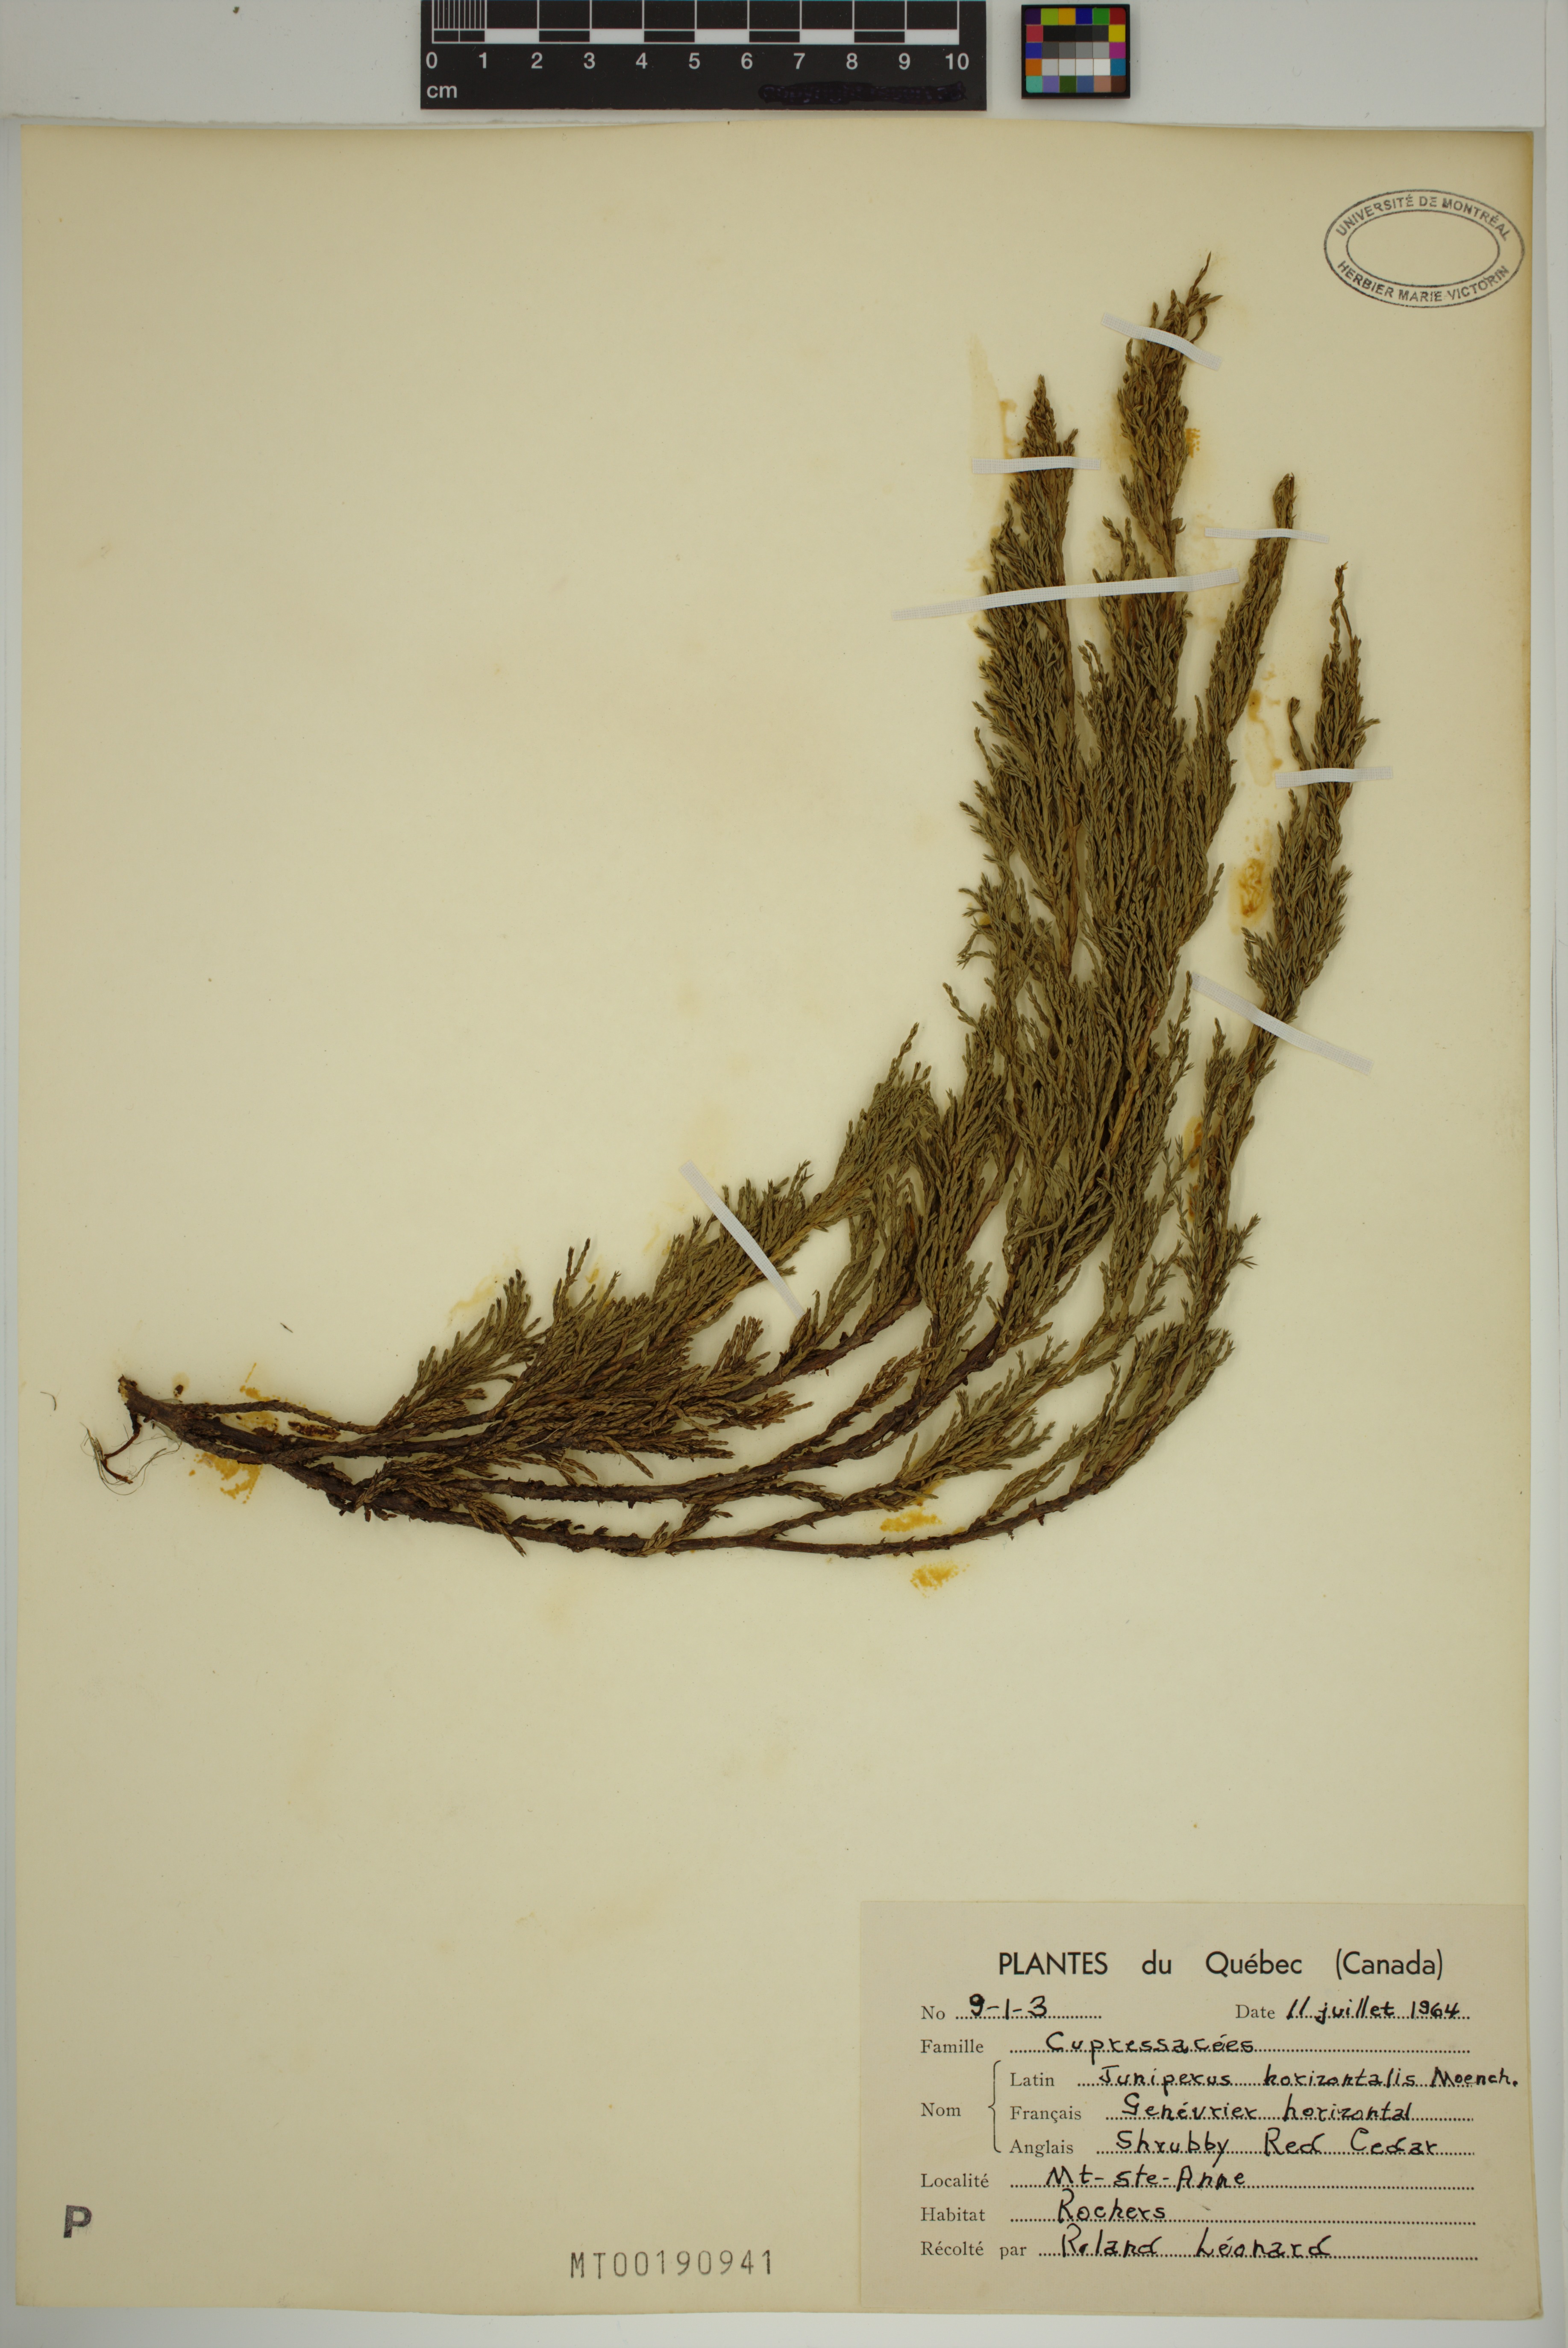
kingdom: Plantae
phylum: Tracheophyta
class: Pinopsida
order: Pinales
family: Cupressaceae
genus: Juniperus
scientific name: Juniperus horizontalis
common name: Creeping juniper
